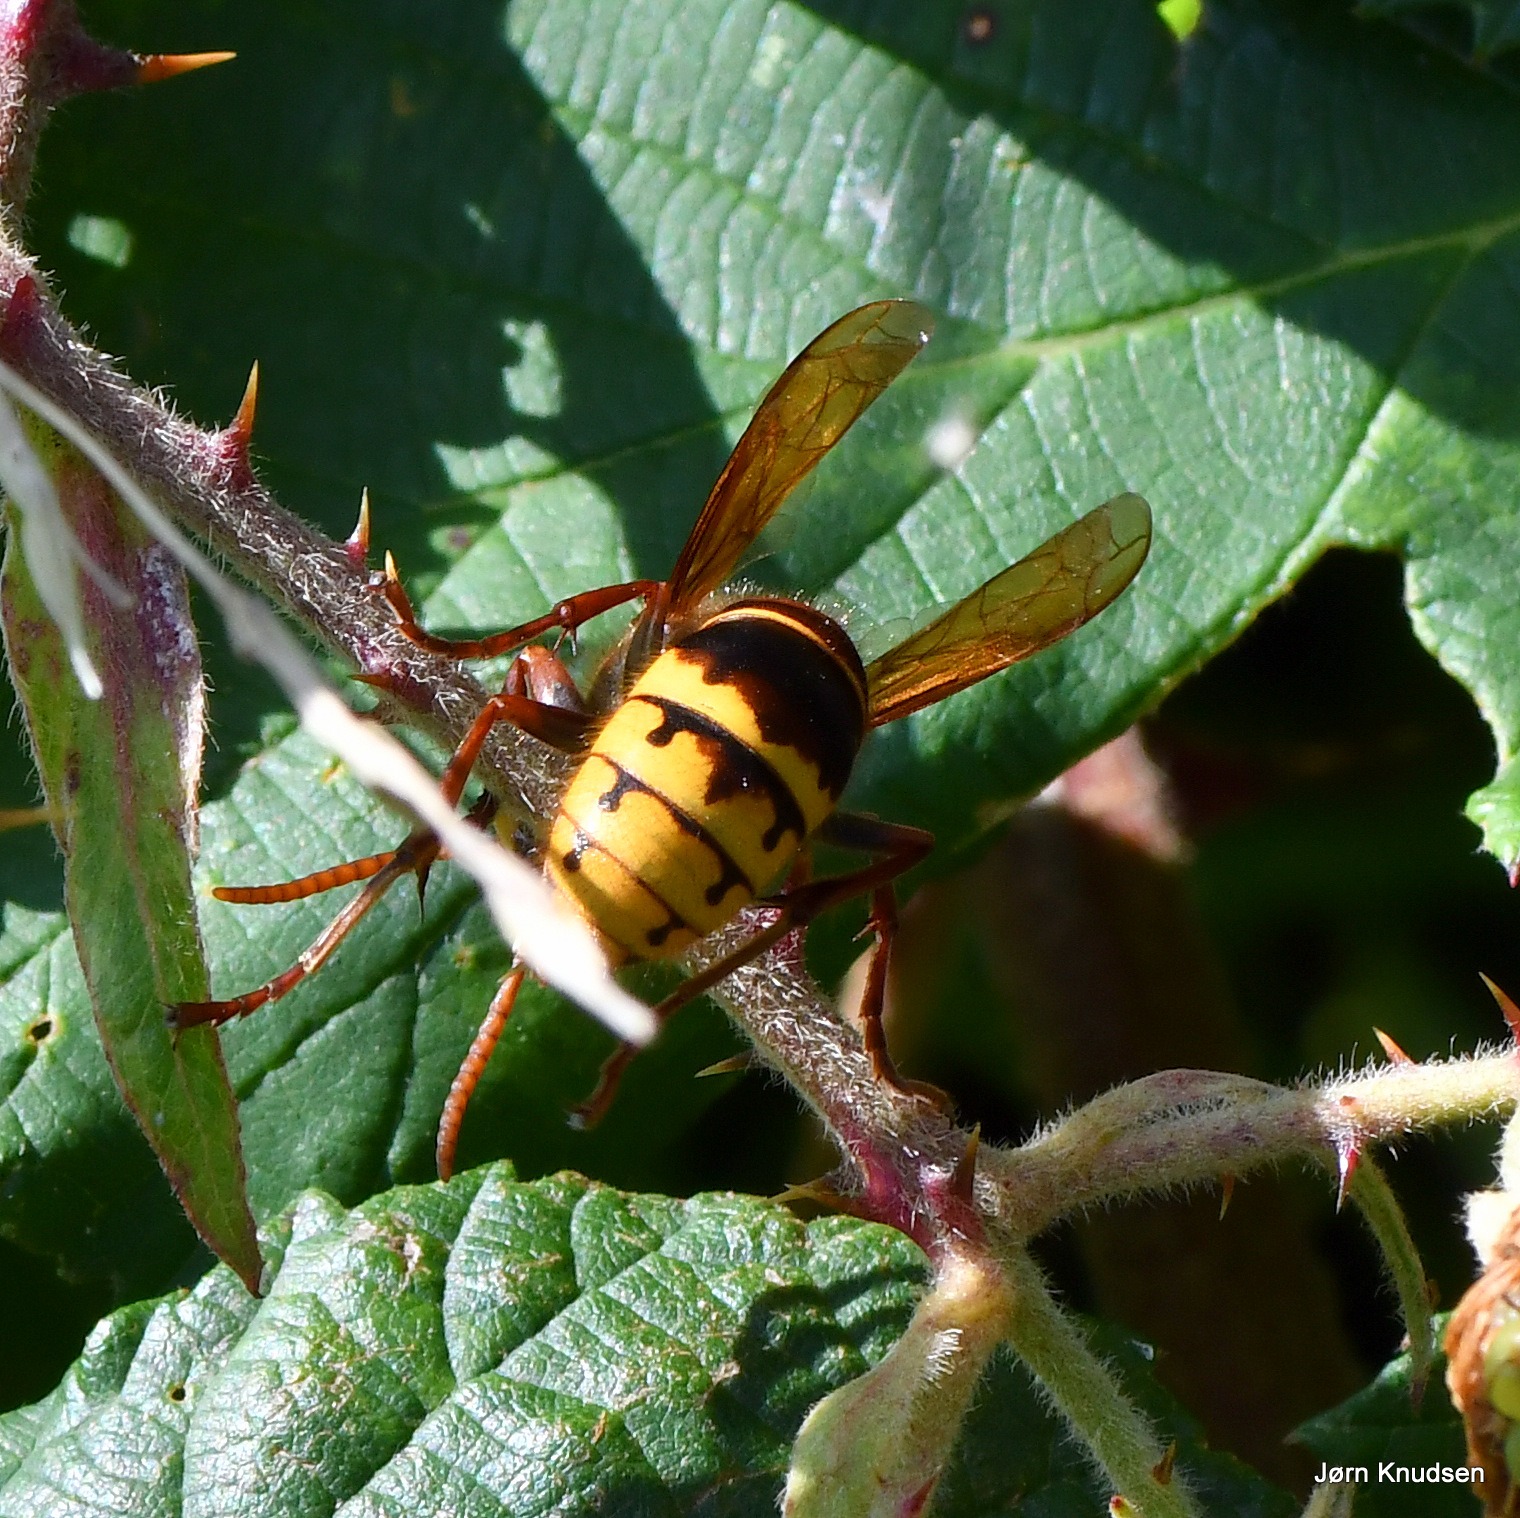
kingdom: Animalia
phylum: Arthropoda
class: Insecta
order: Hymenoptera
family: Vespidae
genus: Vespa
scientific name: Vespa crabro
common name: Stor gedehams
